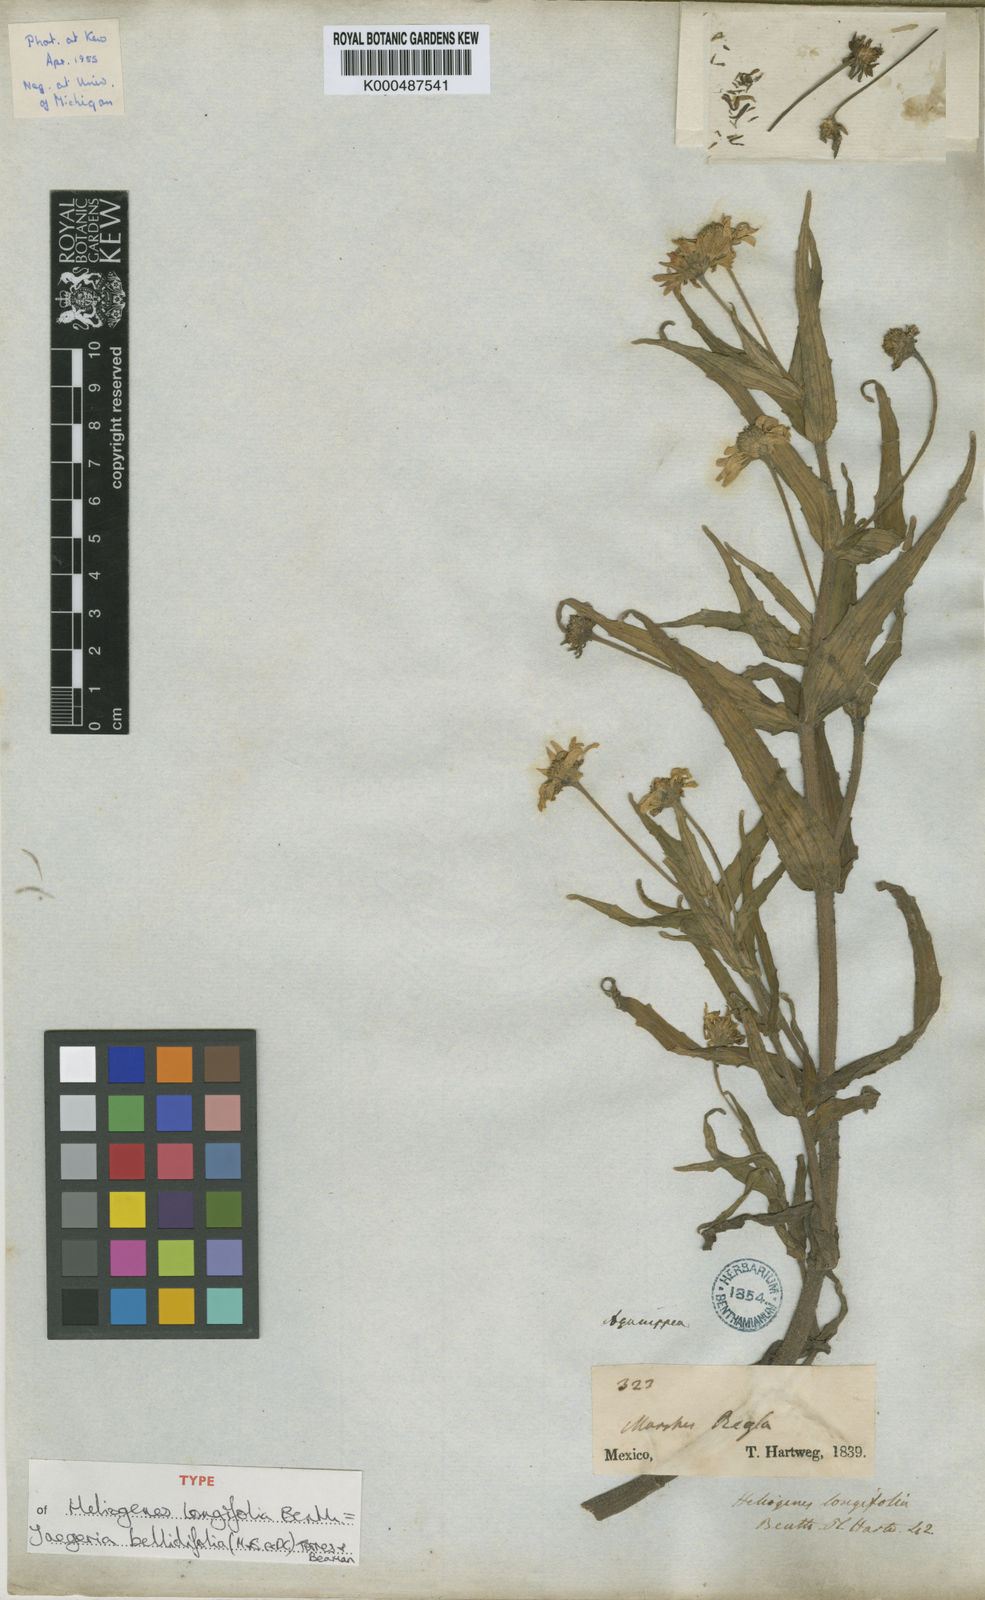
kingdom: Plantae
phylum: Tracheophyta
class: Magnoliopsida
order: Asterales
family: Asteraceae
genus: Jaegeria
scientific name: Jaegeria
